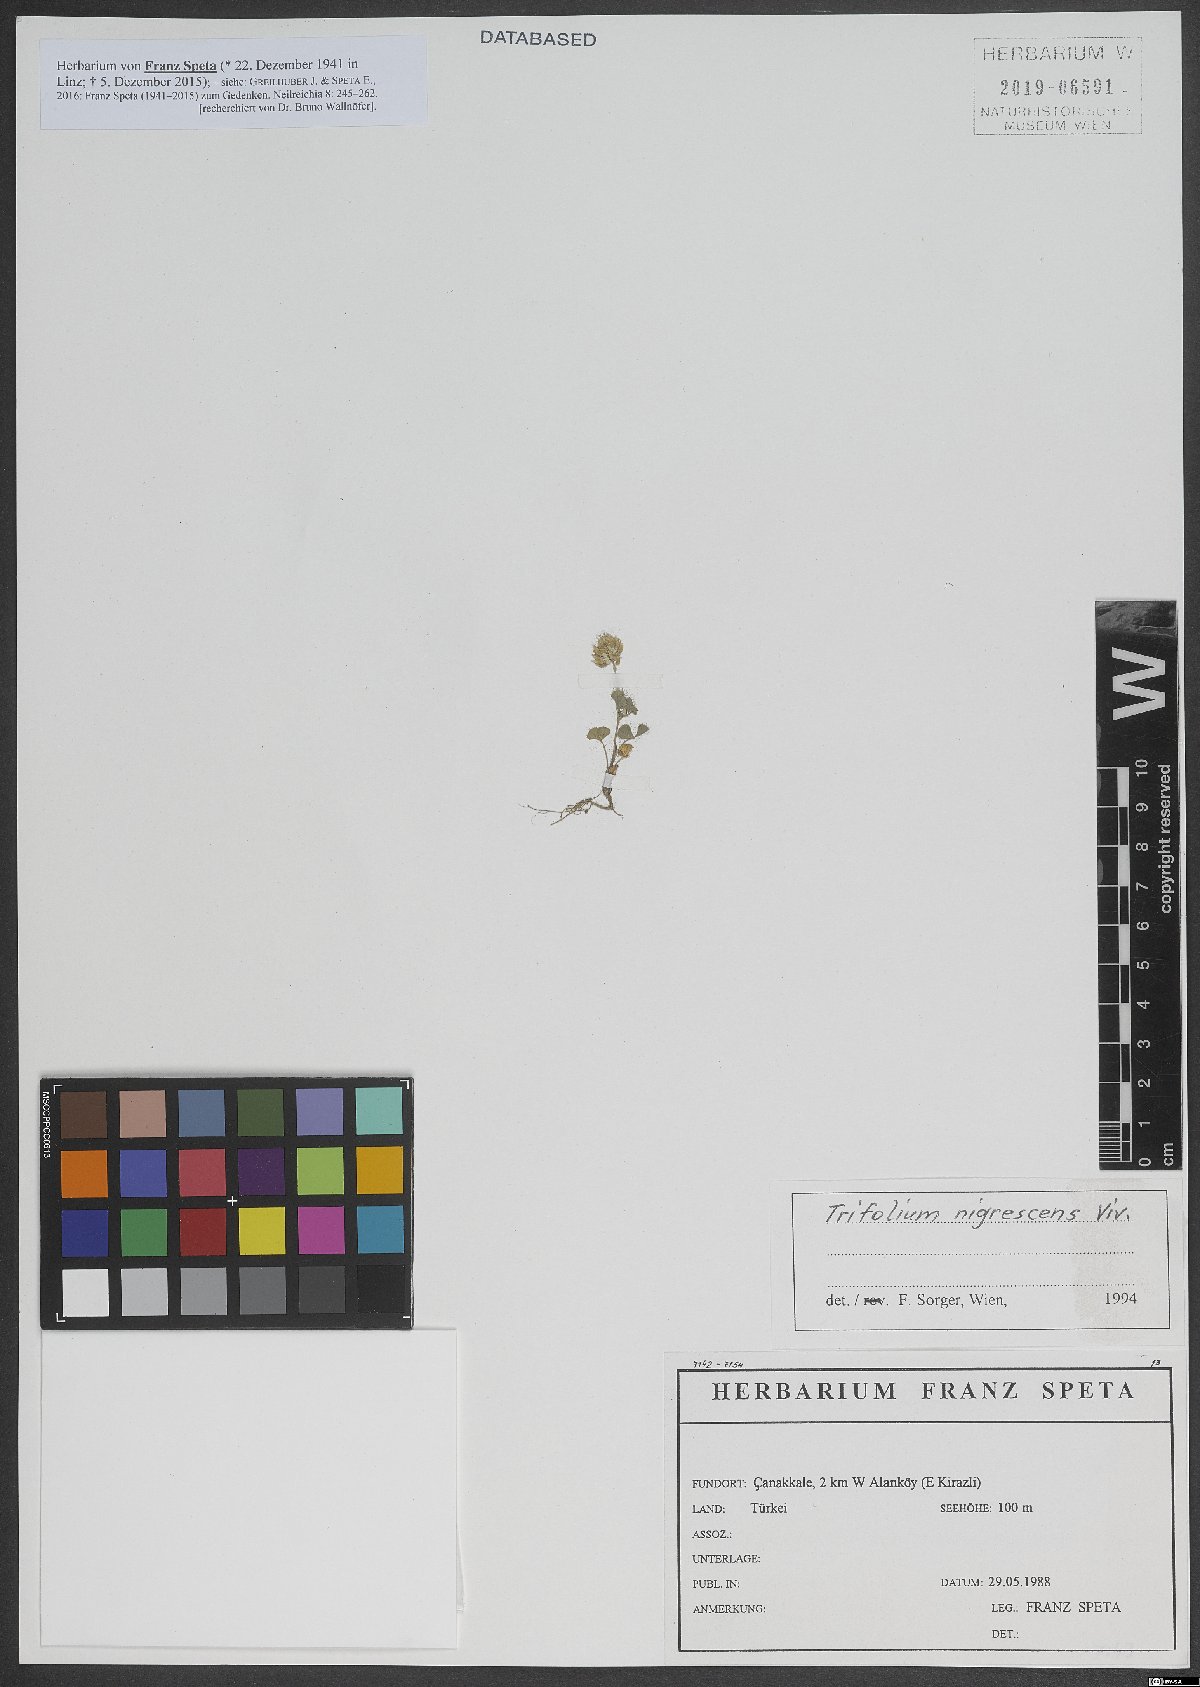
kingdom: Plantae
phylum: Tracheophyta
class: Magnoliopsida
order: Fabales
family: Fabaceae
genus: Trifolium
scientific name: Trifolium nigrescens
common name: Small white clover
